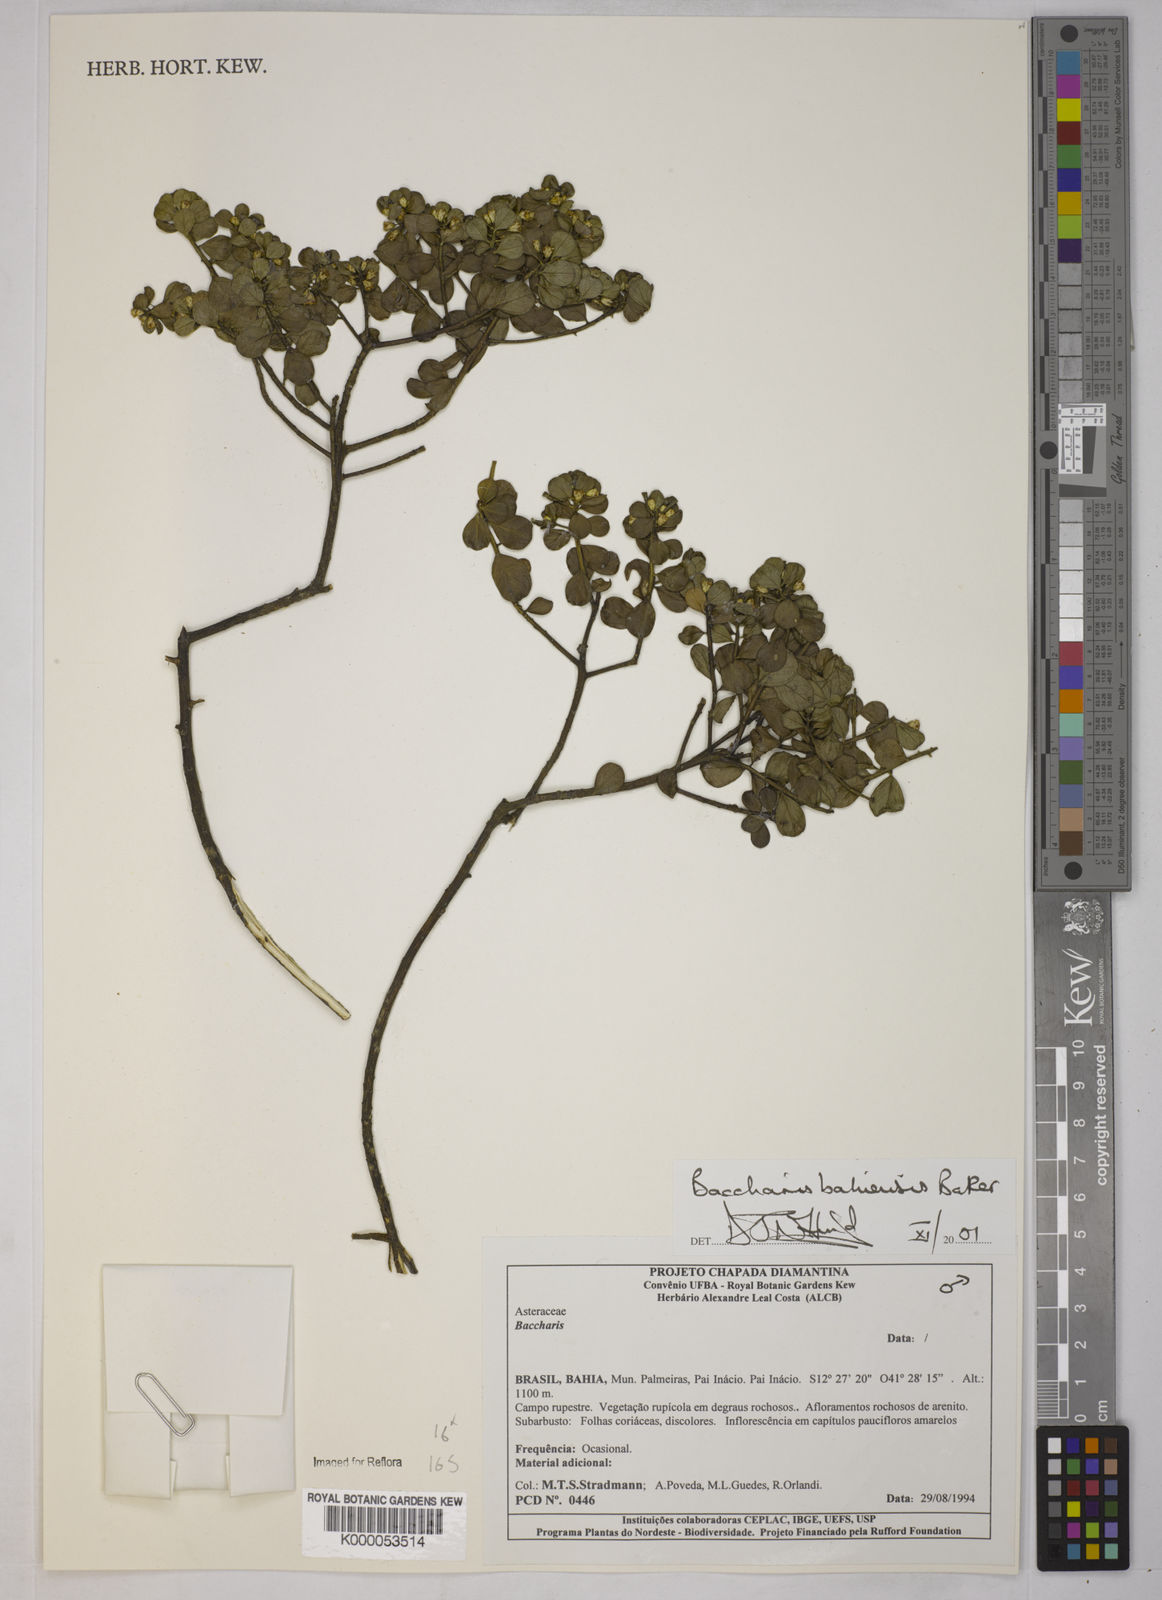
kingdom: Plantae
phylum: Tracheophyta
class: Magnoliopsida
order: Asterales
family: Asteraceae
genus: Baccharis
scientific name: Baccharis
